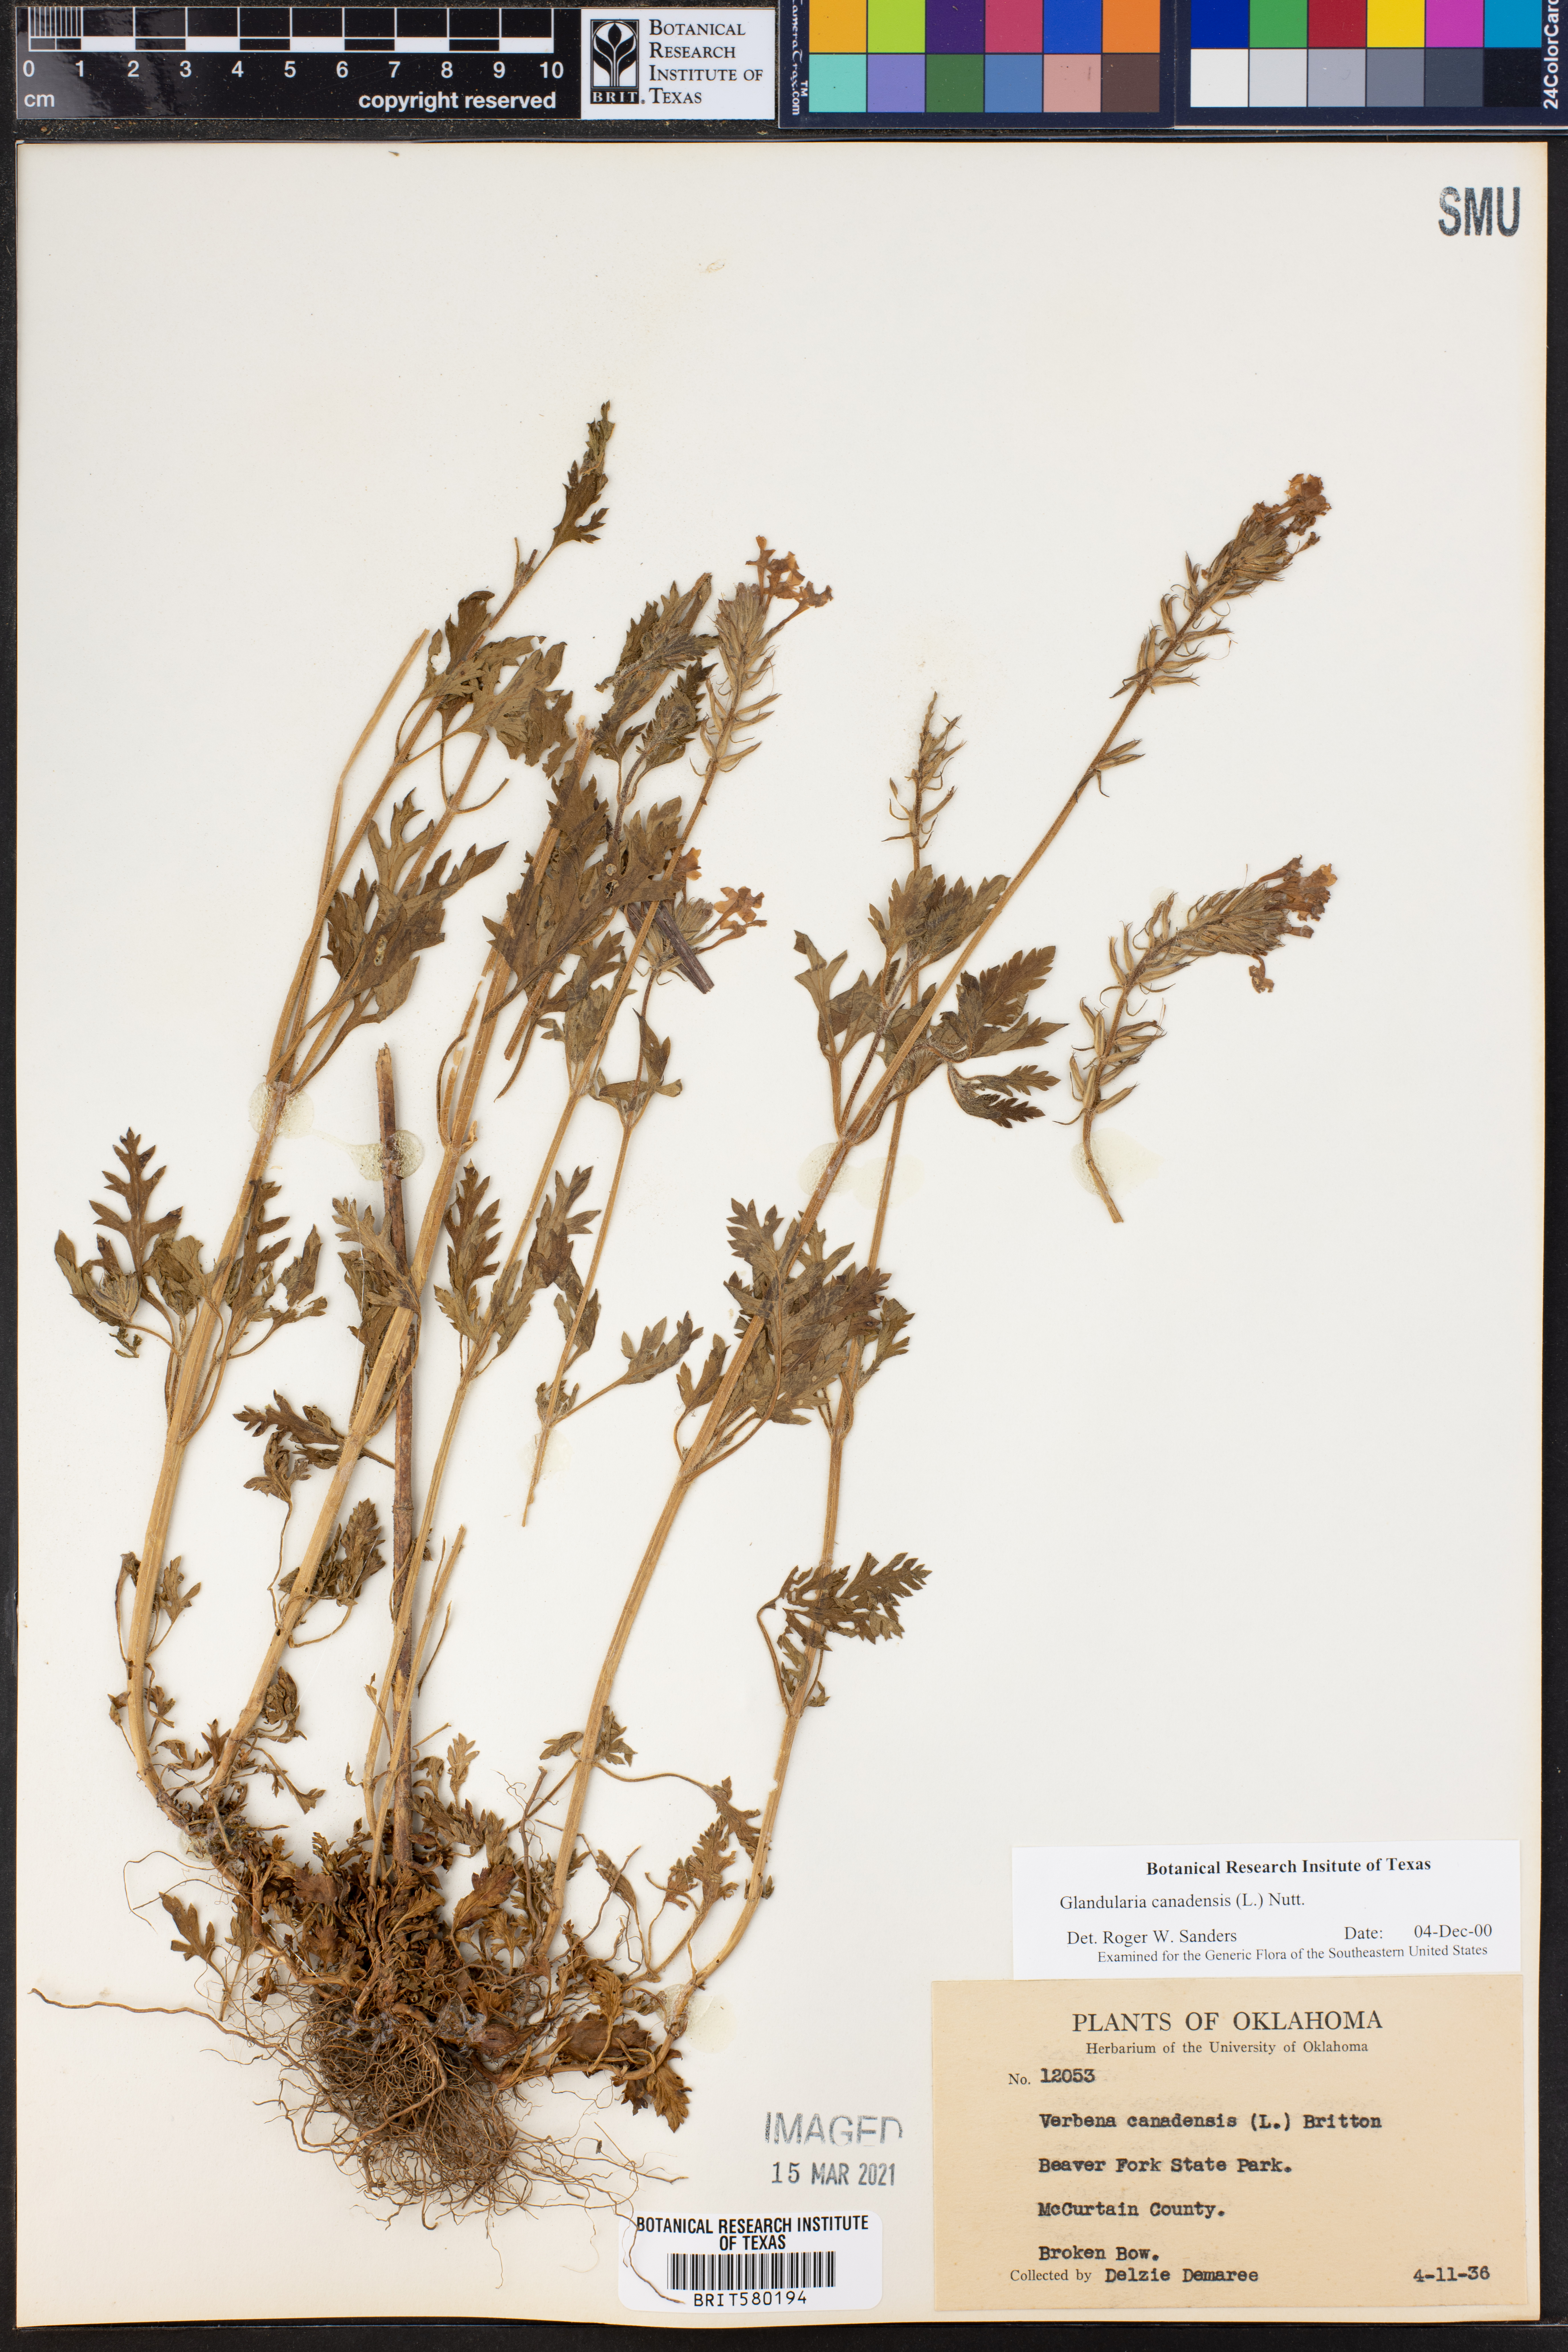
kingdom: Plantae
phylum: Tracheophyta
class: Magnoliopsida
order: Lamiales
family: Verbenaceae
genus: Verbena
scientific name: Verbena canadensis
